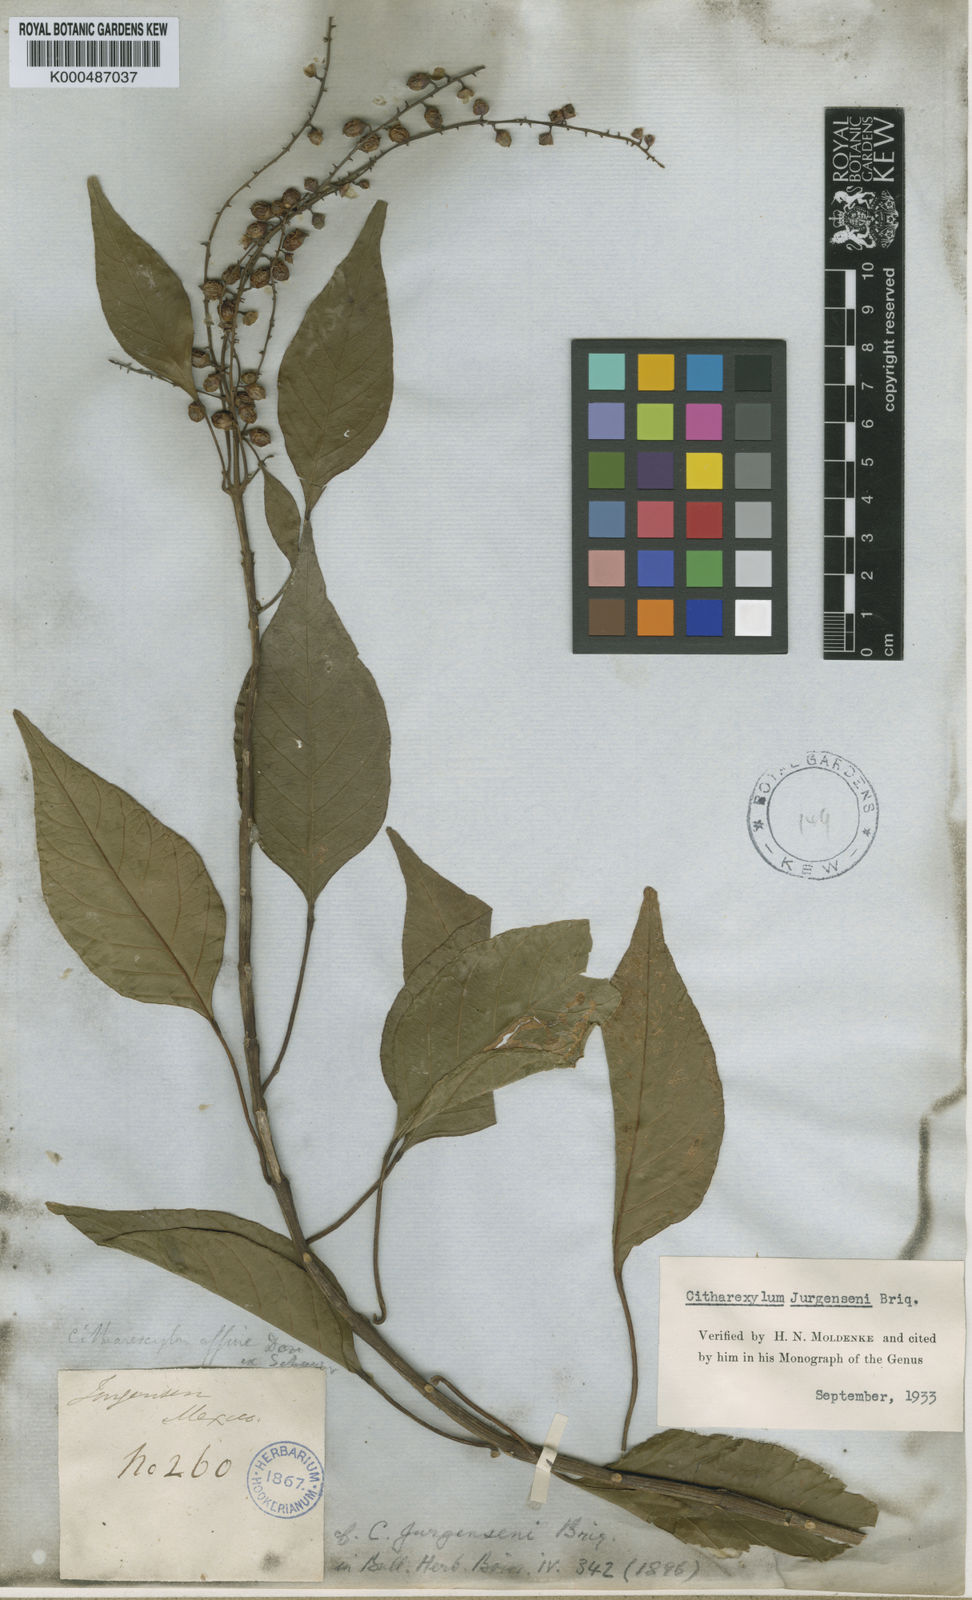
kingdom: Plantae
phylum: Tracheophyta
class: Magnoliopsida
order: Lamiales
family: Verbenaceae
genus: Citharexylum
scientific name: Citharexylum affine
